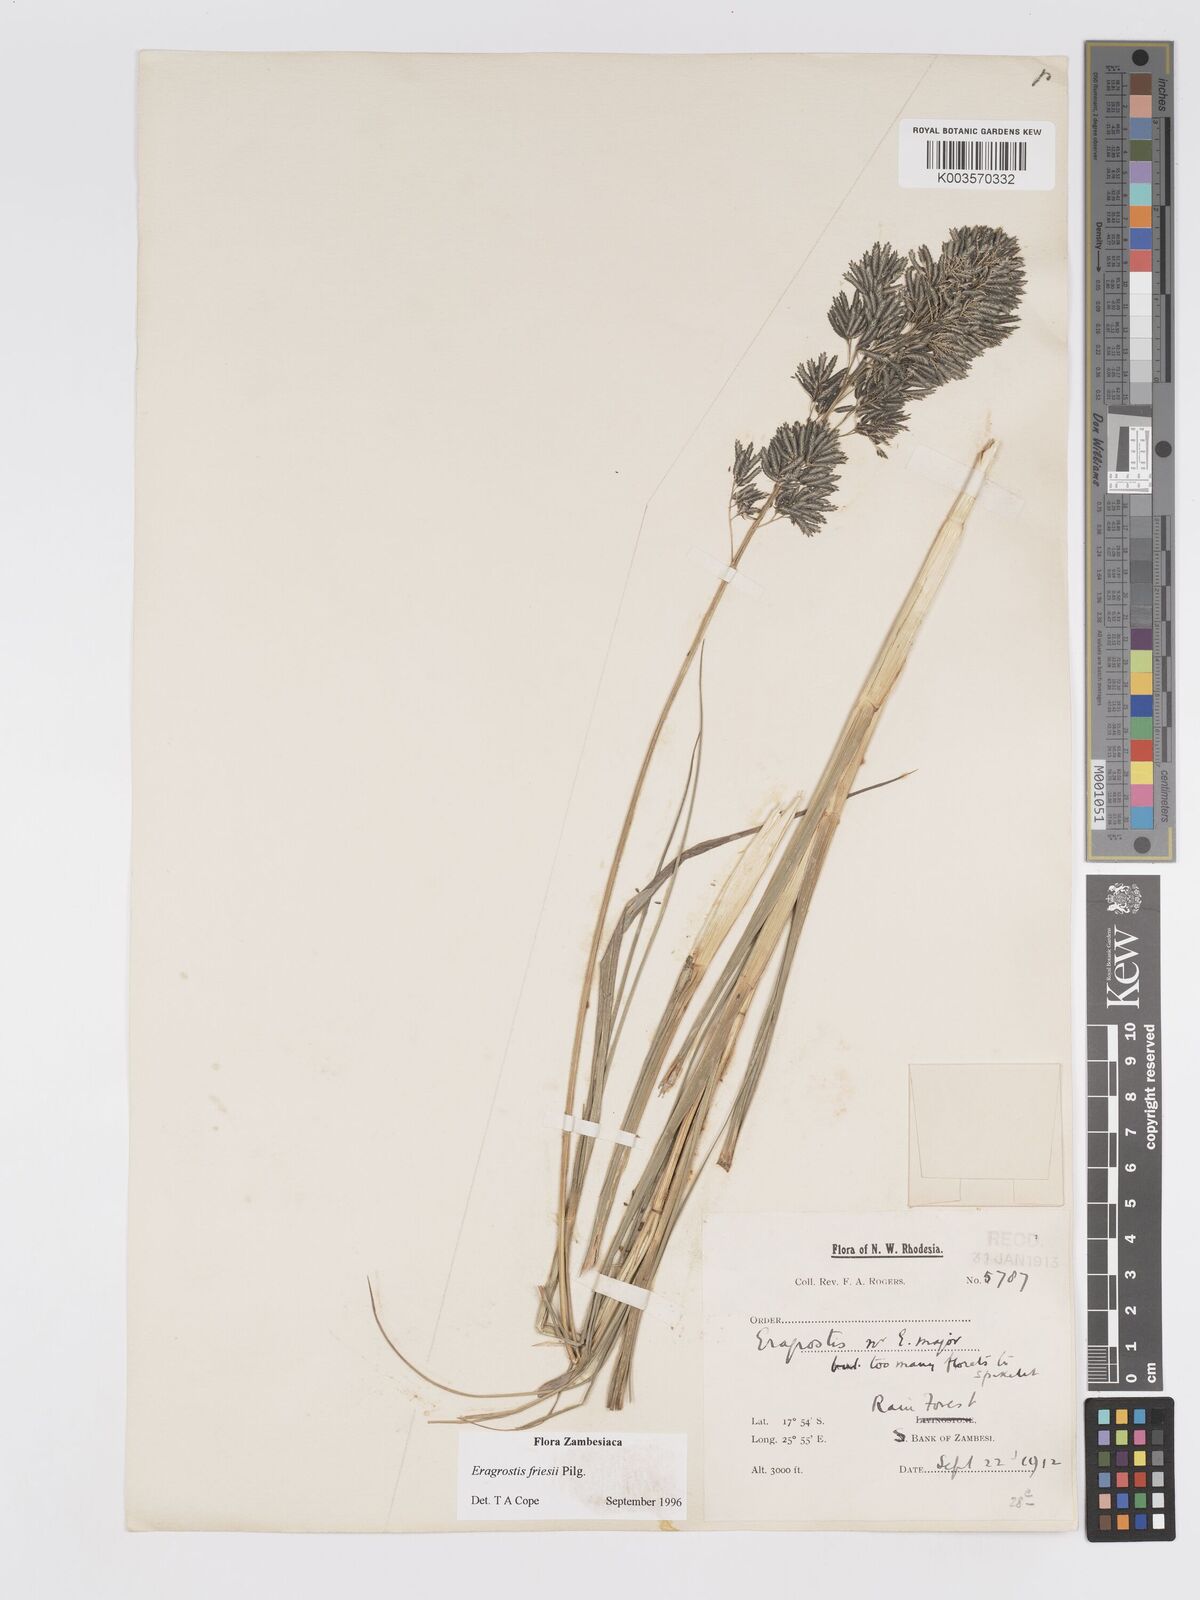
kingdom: Plantae
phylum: Tracheophyta
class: Liliopsida
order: Poales
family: Poaceae
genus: Eragrostis
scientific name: Eragrostis friesii
